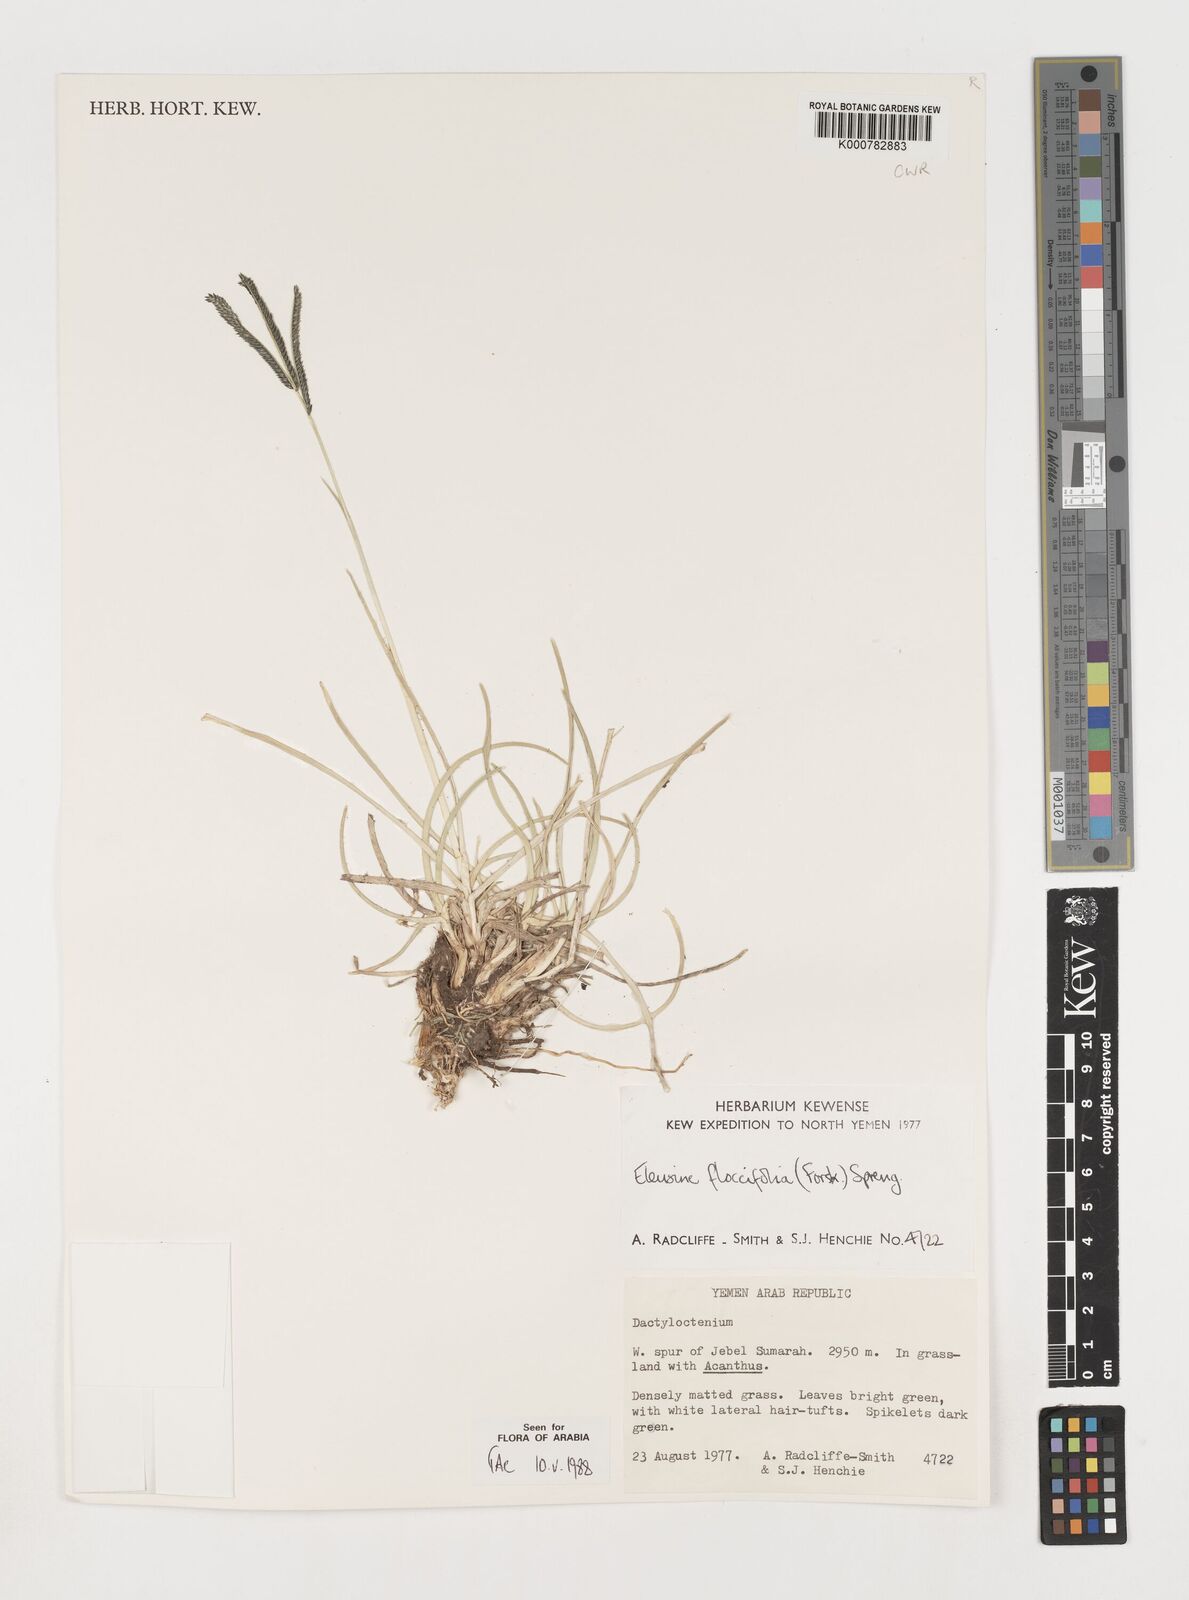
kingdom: Plantae
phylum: Tracheophyta
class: Liliopsida
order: Poales
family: Poaceae
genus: Eleusine
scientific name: Eleusine floccifolia
